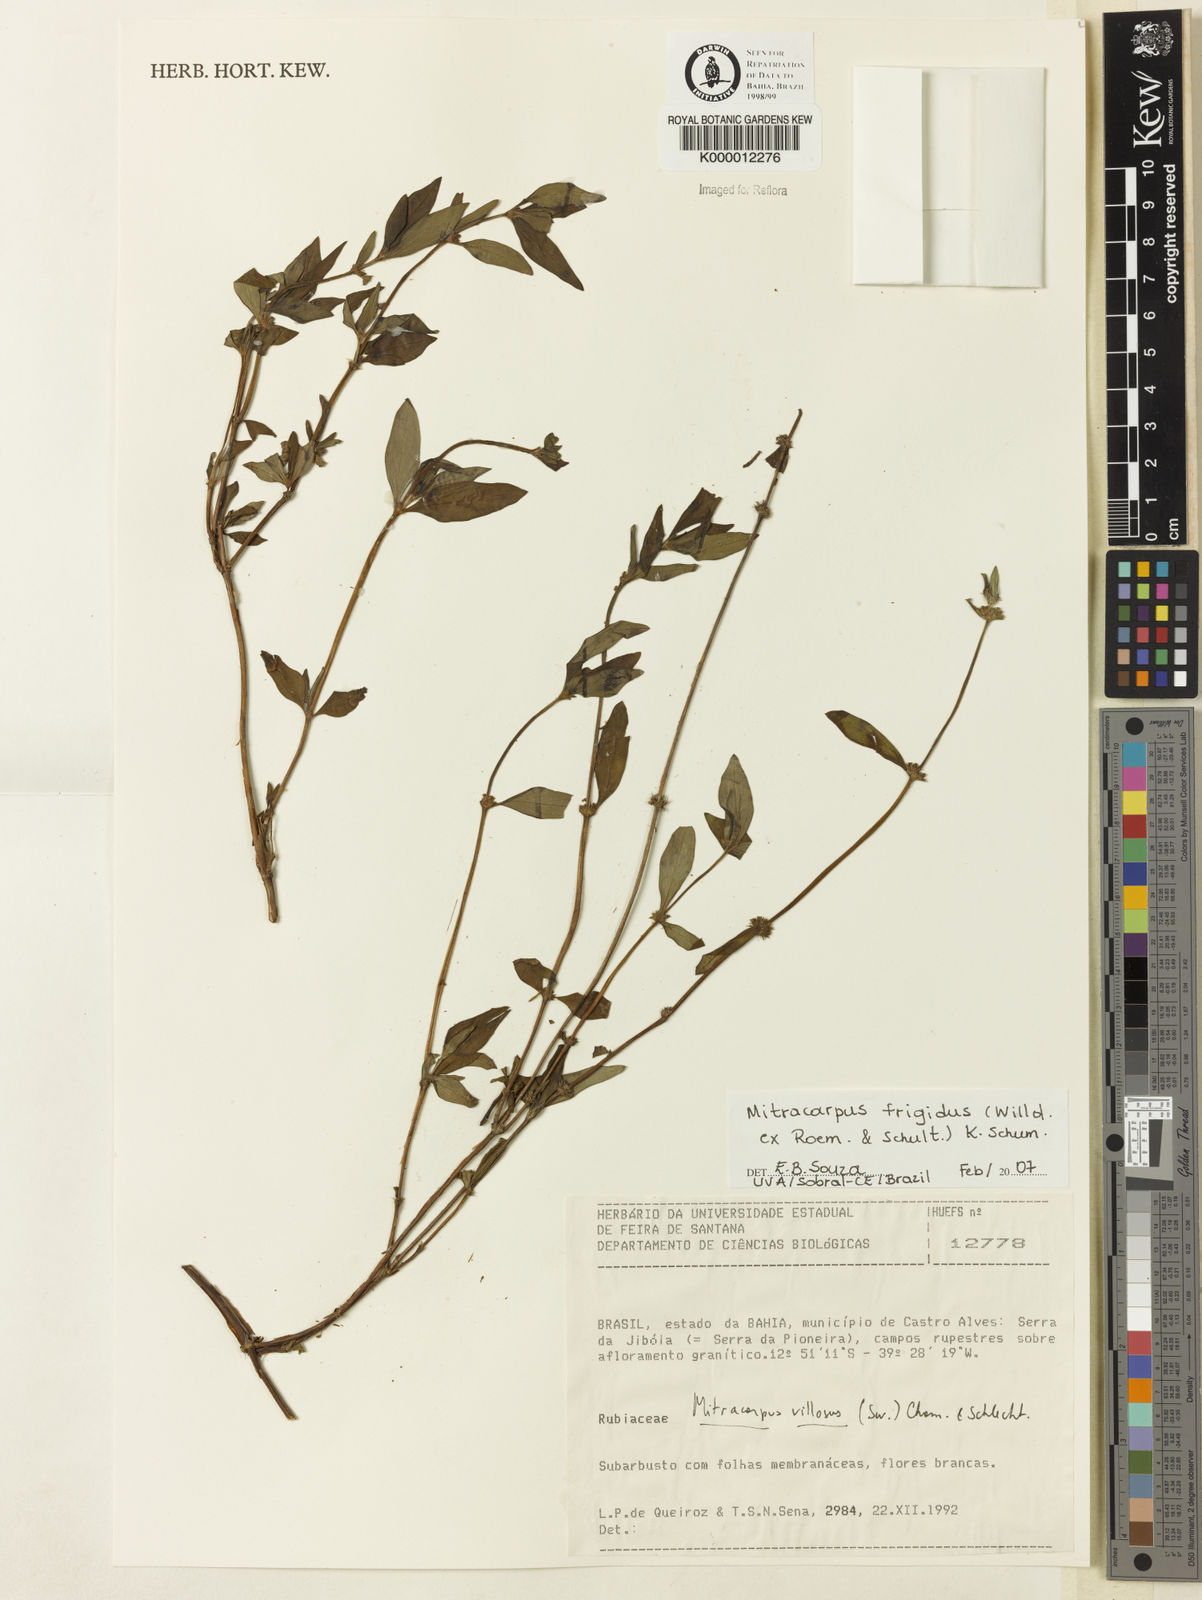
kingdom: Plantae
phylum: Tracheophyta
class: Magnoliopsida
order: Gentianales
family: Rubiaceae
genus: Mitracarpus
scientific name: Mitracarpus frigidus
